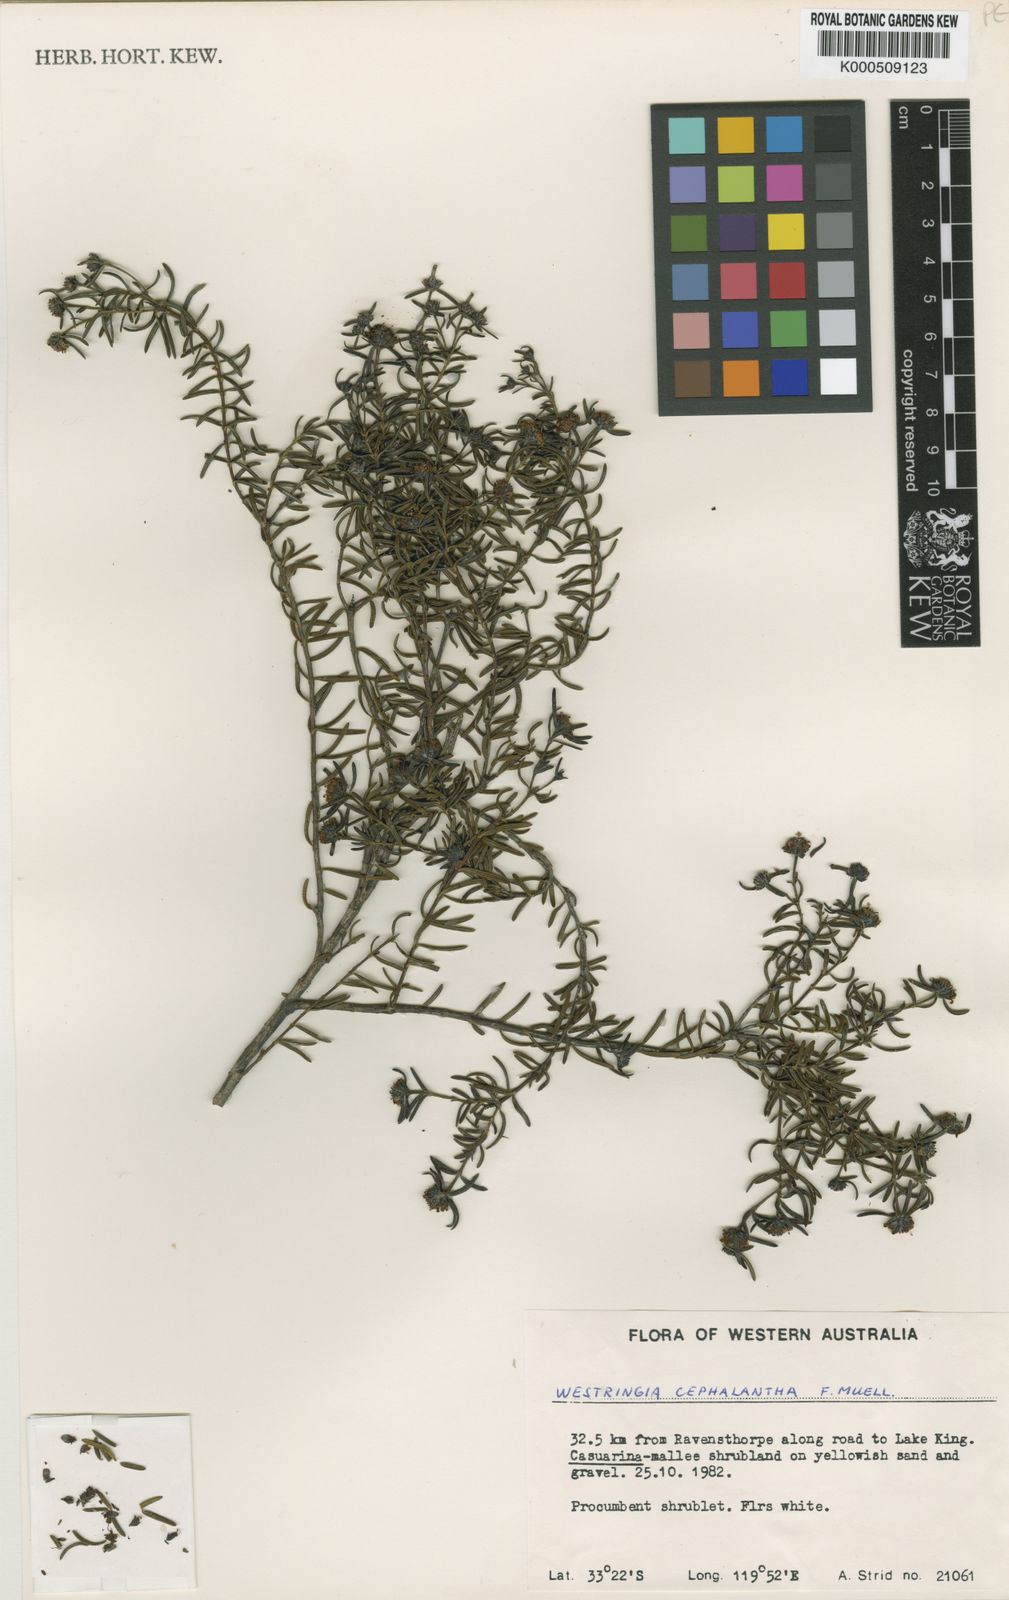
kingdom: Plantae
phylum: Tracheophyta
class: Magnoliopsida
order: Lamiales
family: Lamiaceae
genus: Westringia
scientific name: Westringia cephalantha
